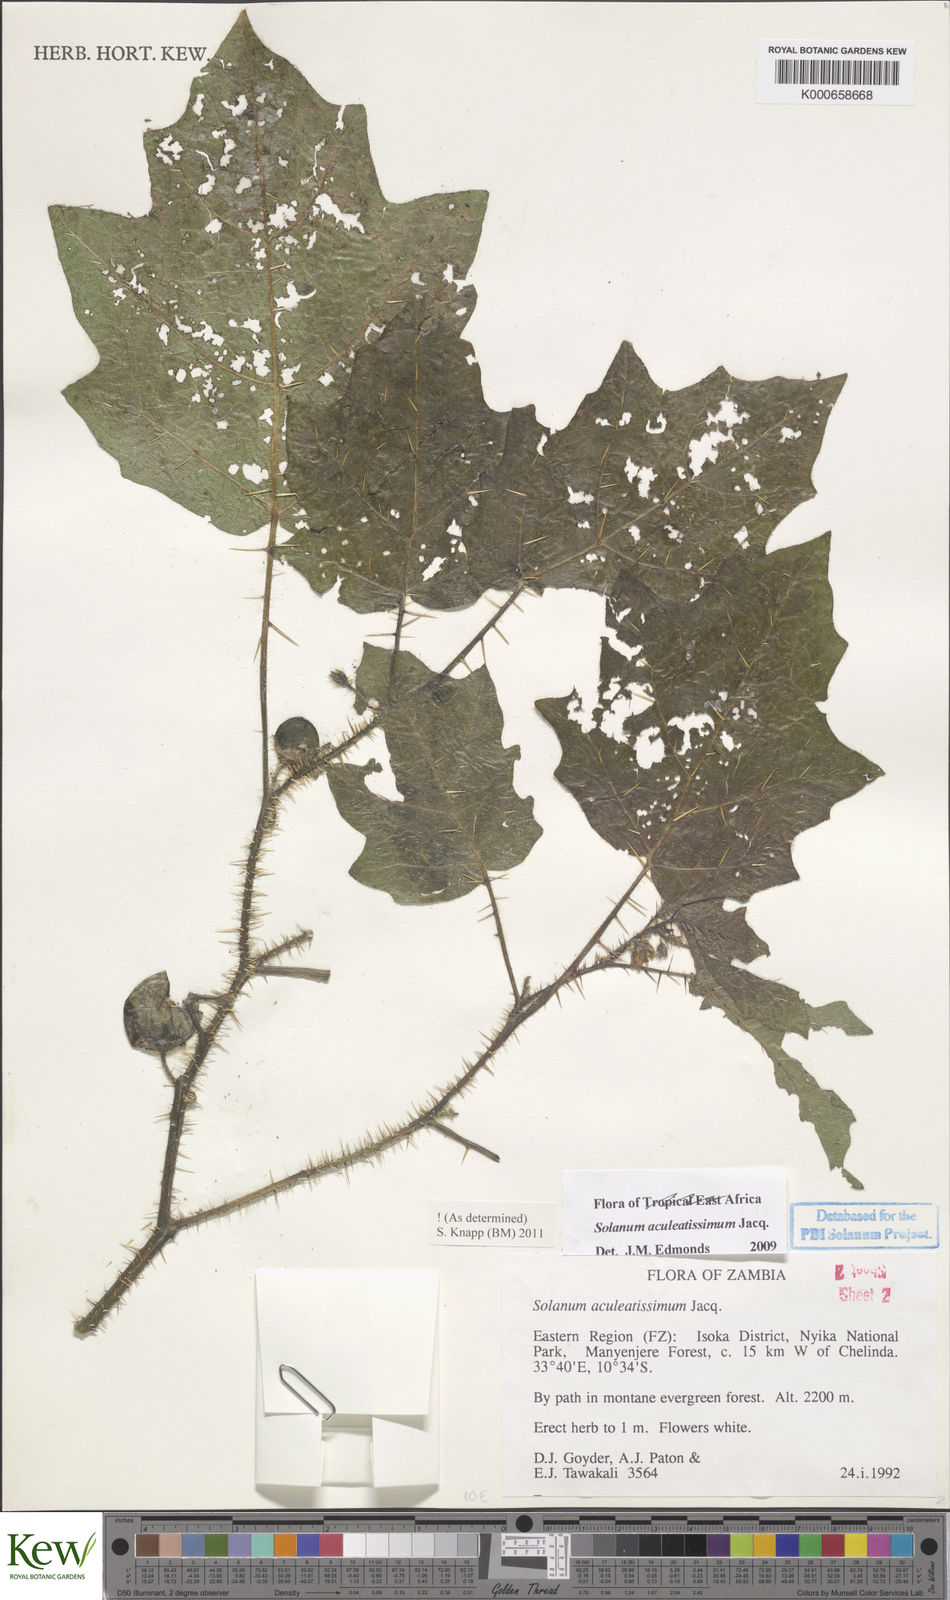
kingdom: Plantae
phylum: Tracheophyta
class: Magnoliopsida
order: Solanales
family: Solanaceae
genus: Solanum
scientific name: Solanum aculeatissimum
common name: Dutch eggplant
